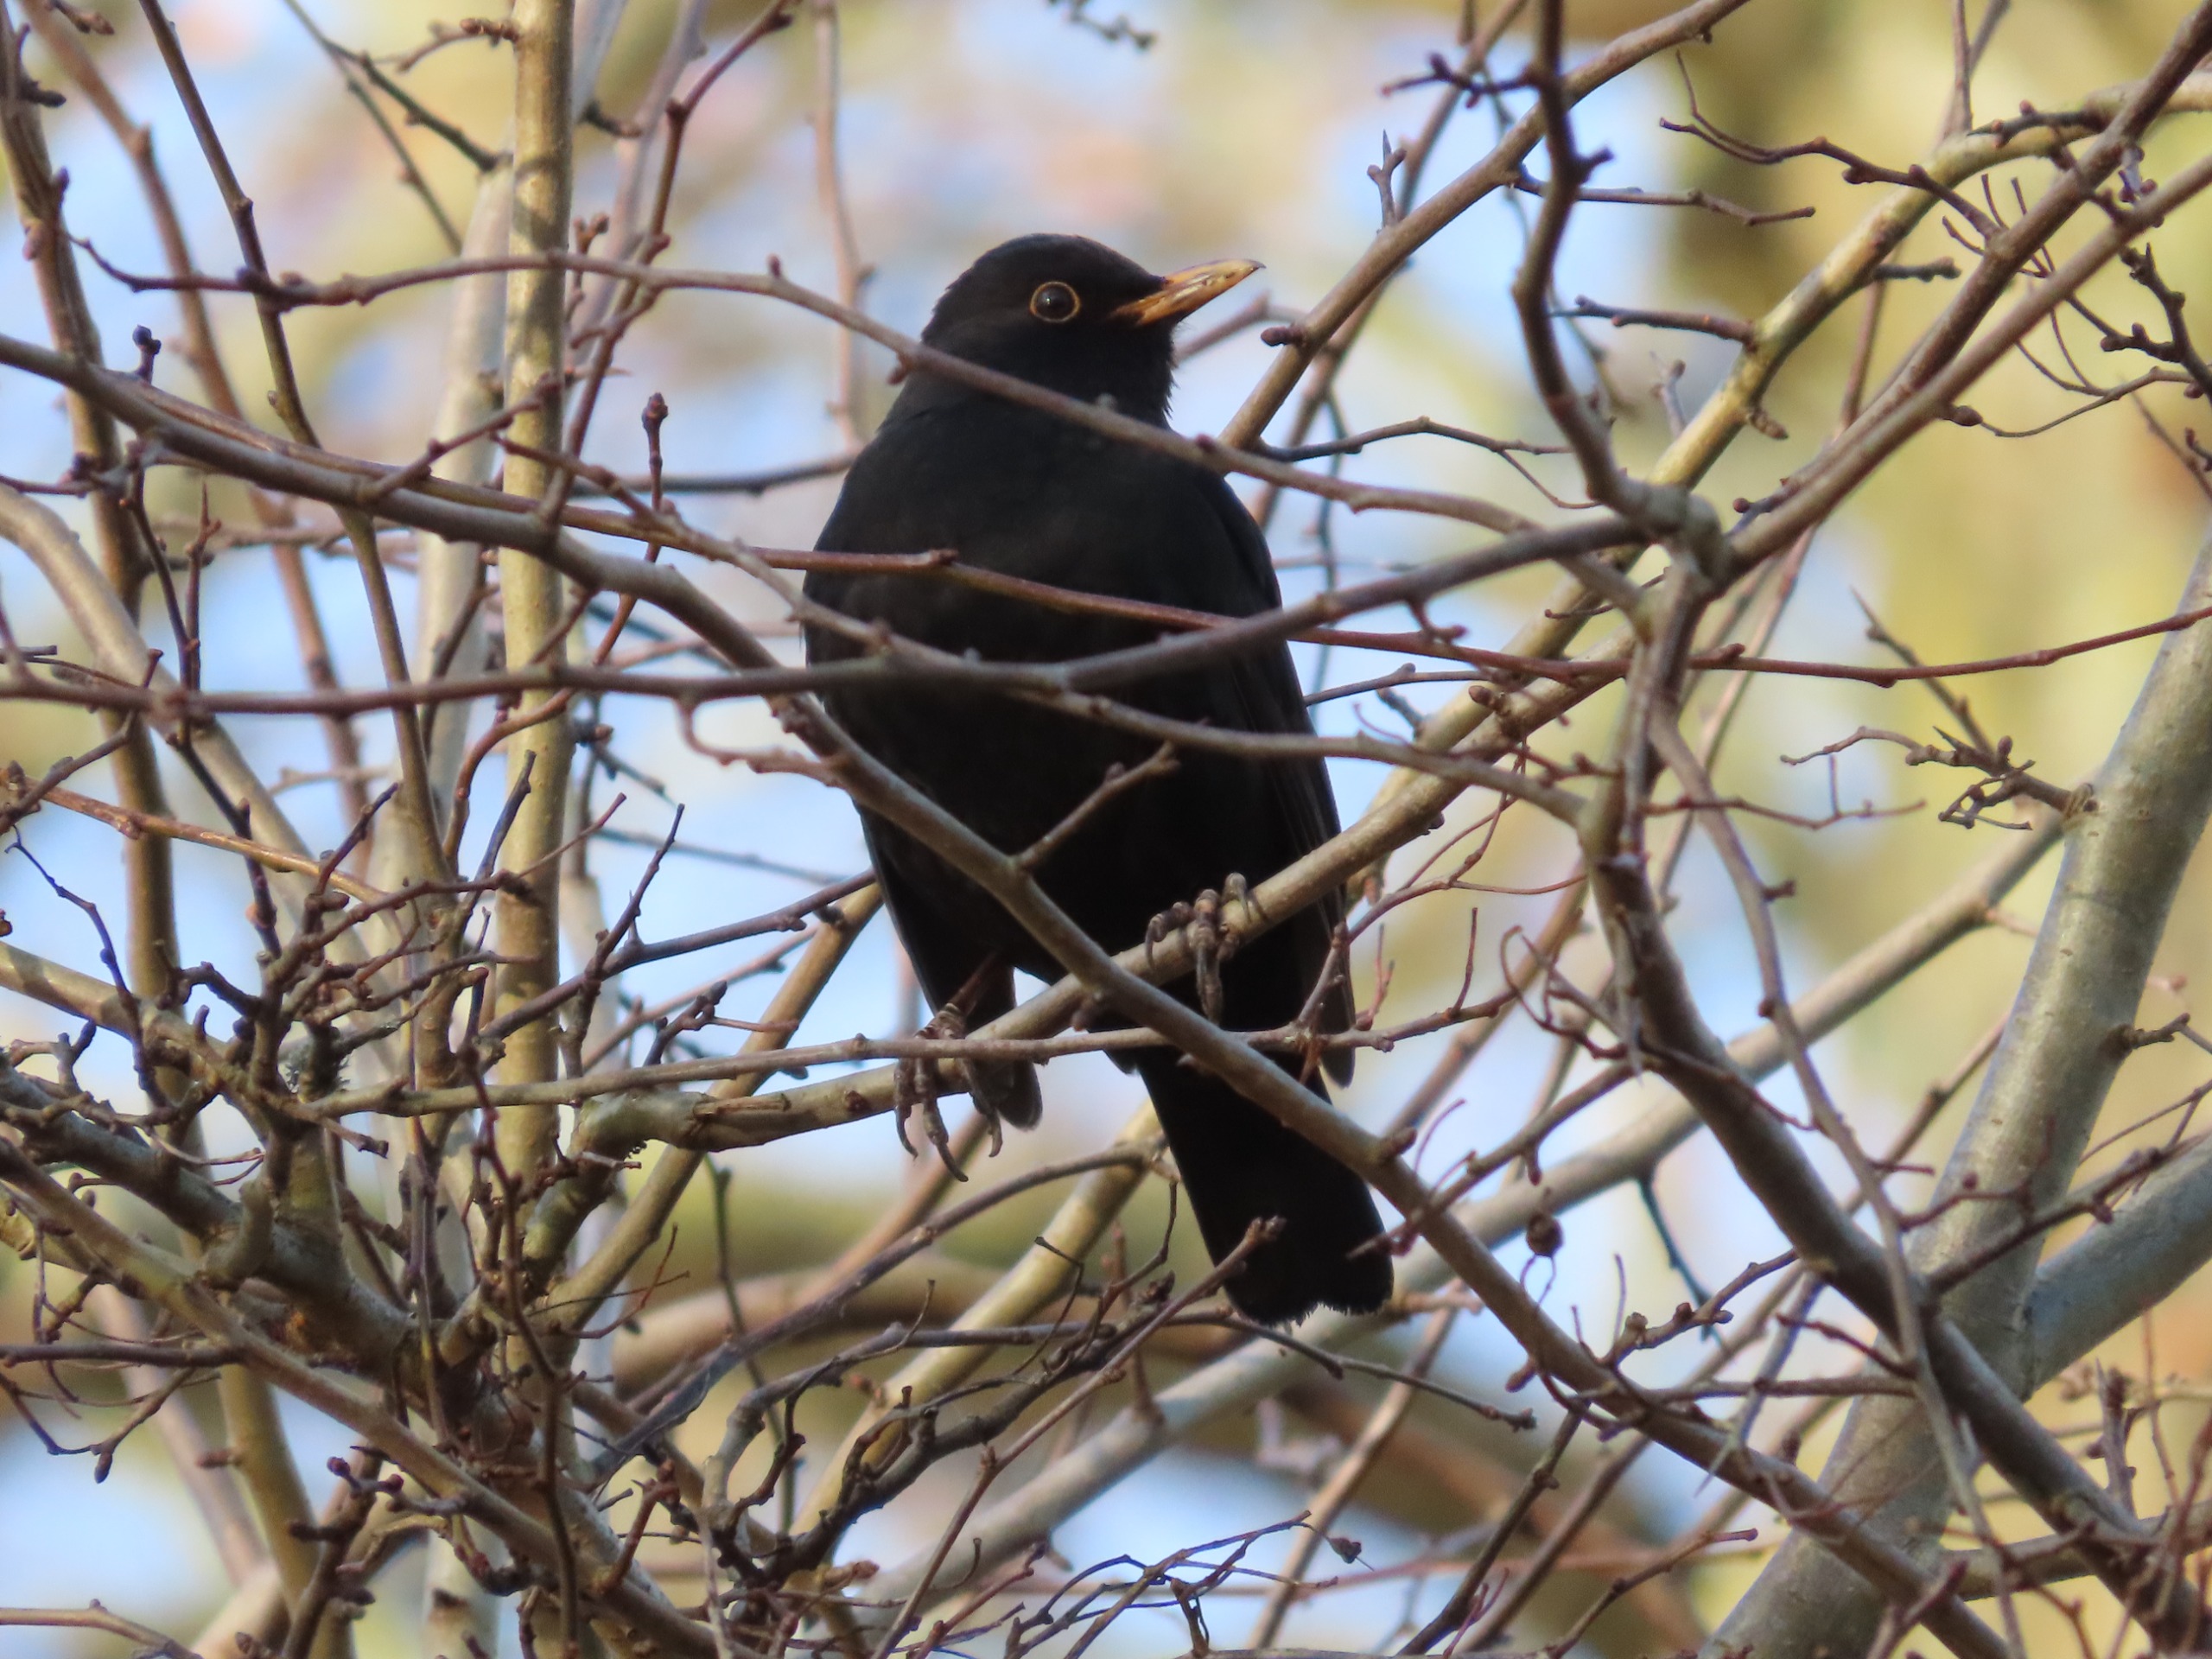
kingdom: Animalia
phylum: Chordata
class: Aves
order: Passeriformes
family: Turdidae
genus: Turdus
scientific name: Turdus merula
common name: Solsort
